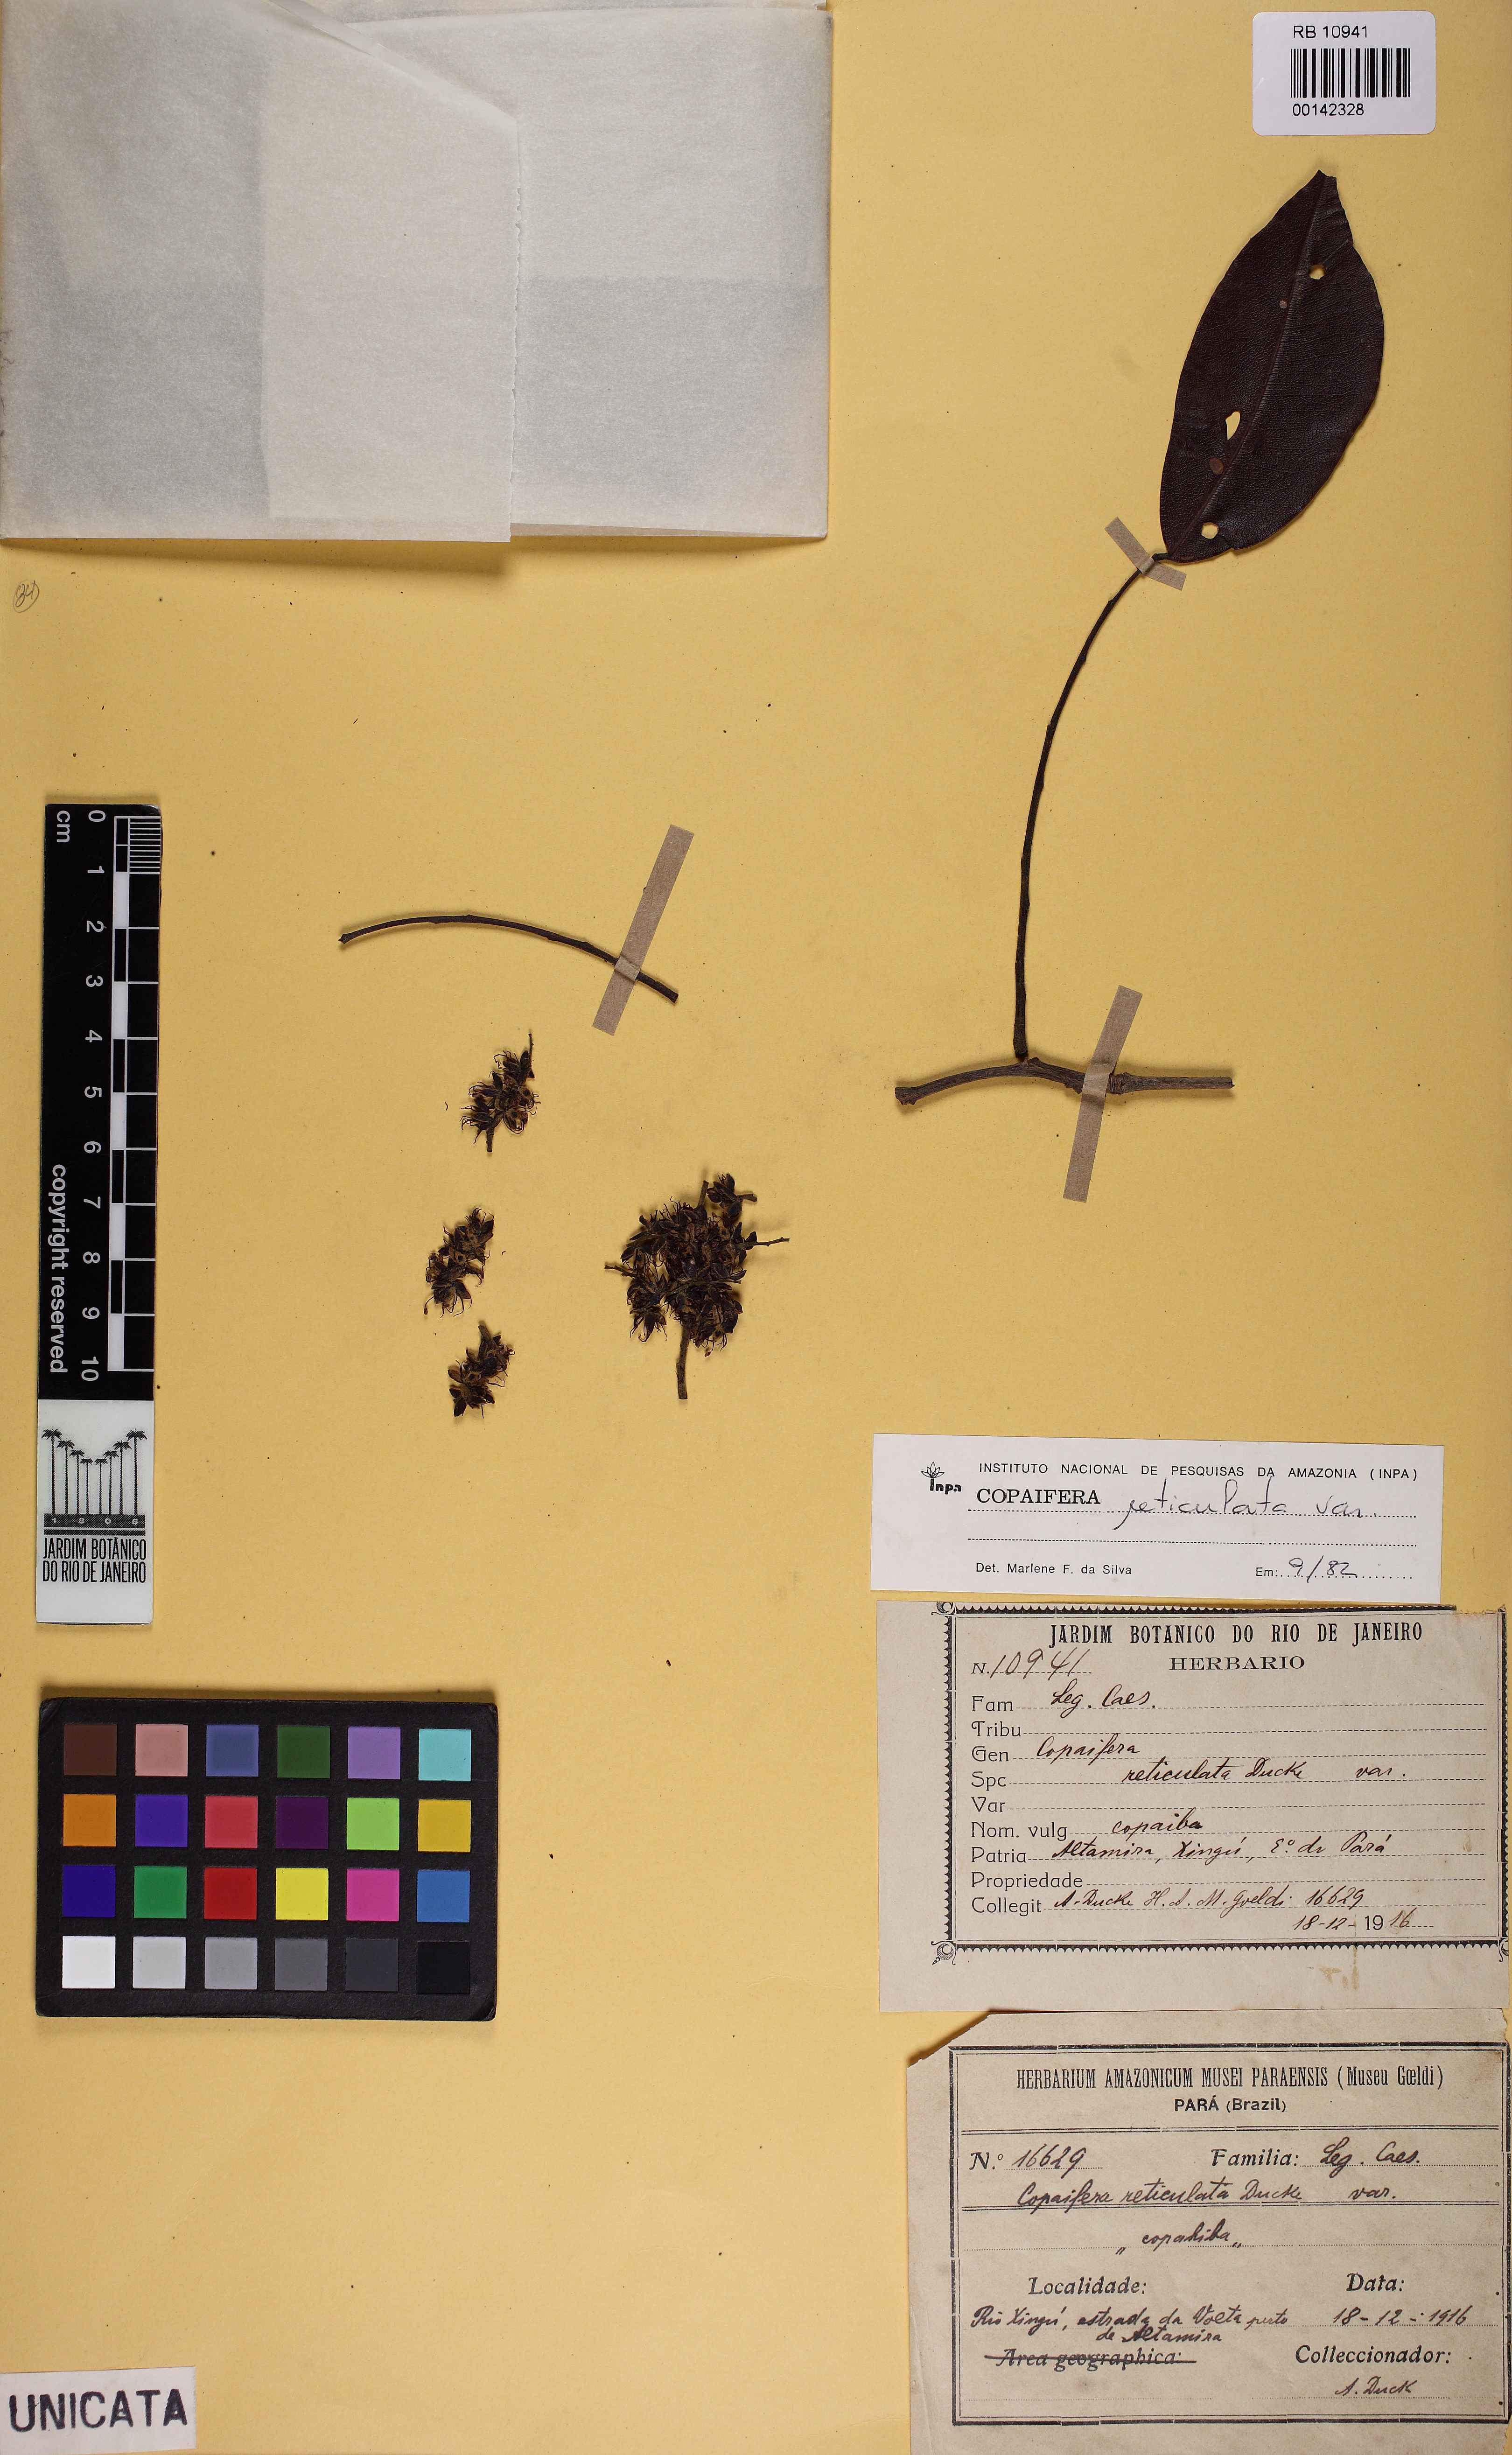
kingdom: Plantae
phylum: Tracheophyta
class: Magnoliopsida
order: Fabales
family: Fabaceae
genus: Copaifera
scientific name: Copaifera copaibo
